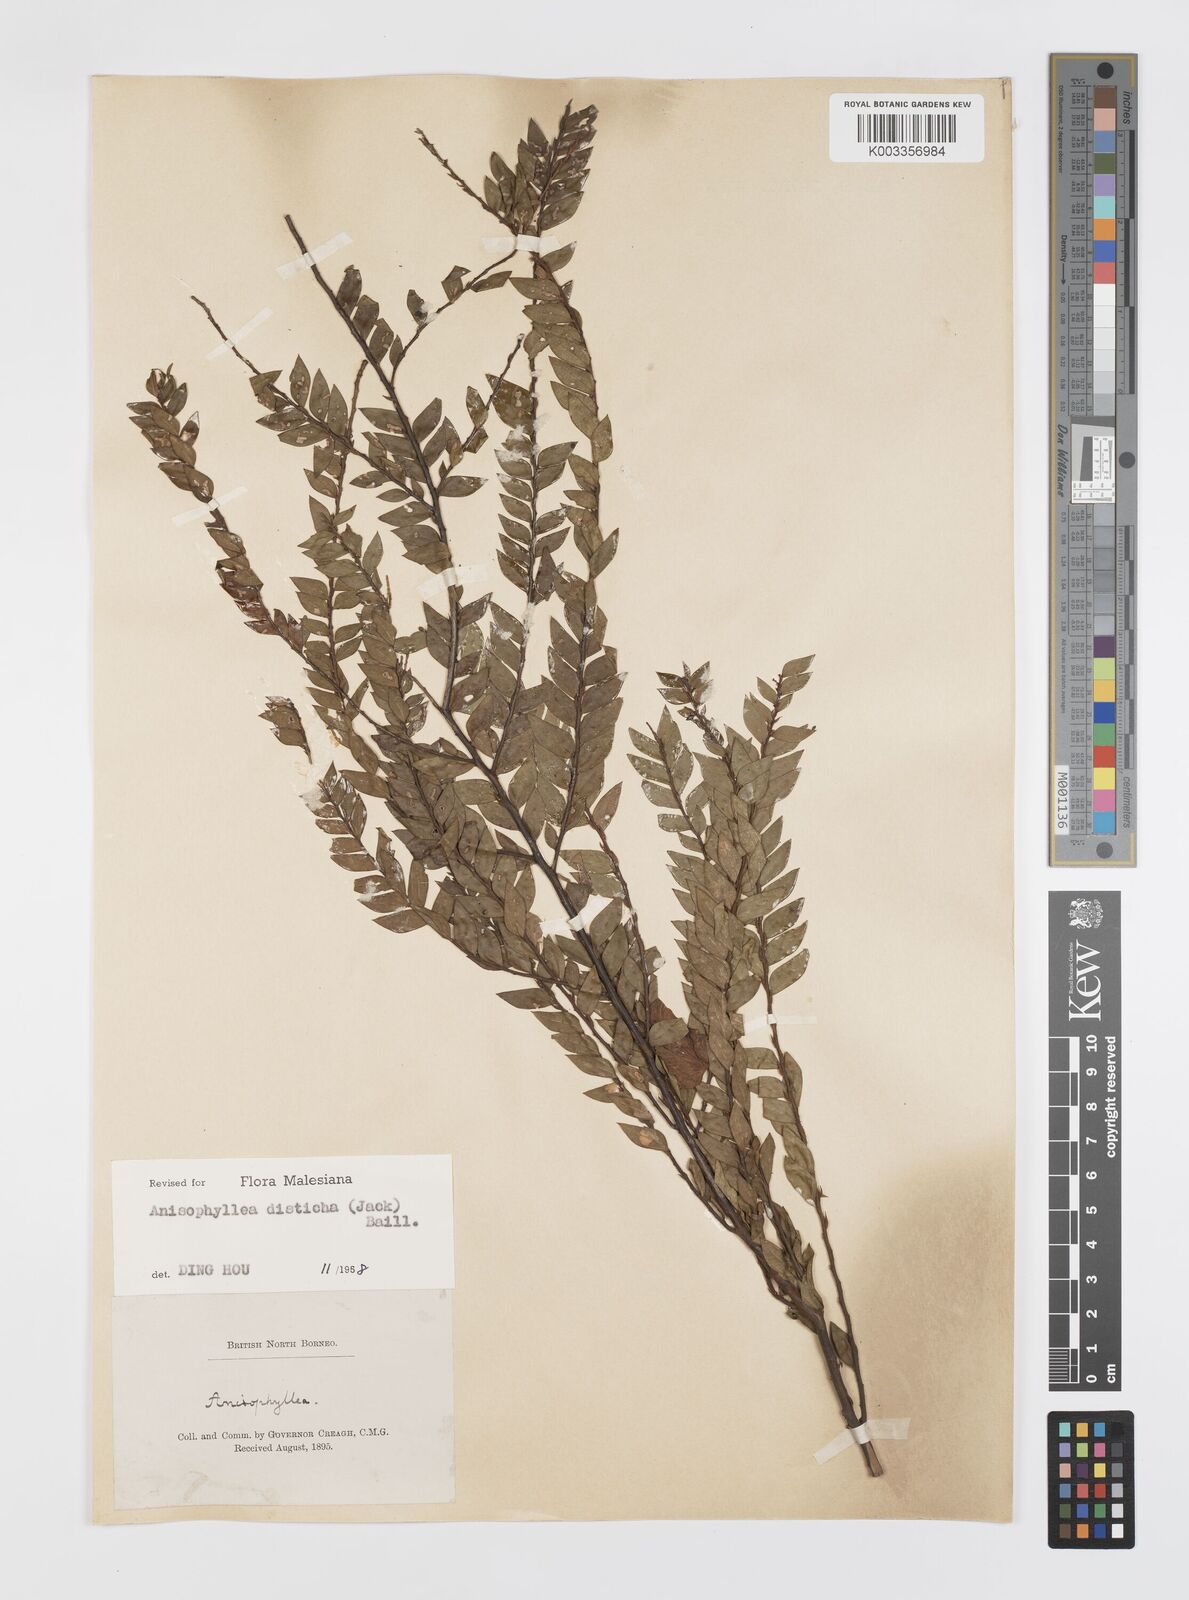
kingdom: Plantae
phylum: Tracheophyta
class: Magnoliopsida
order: Cucurbitales
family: Anisophylleaceae
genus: Anisophyllea
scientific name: Anisophyllea disticha
